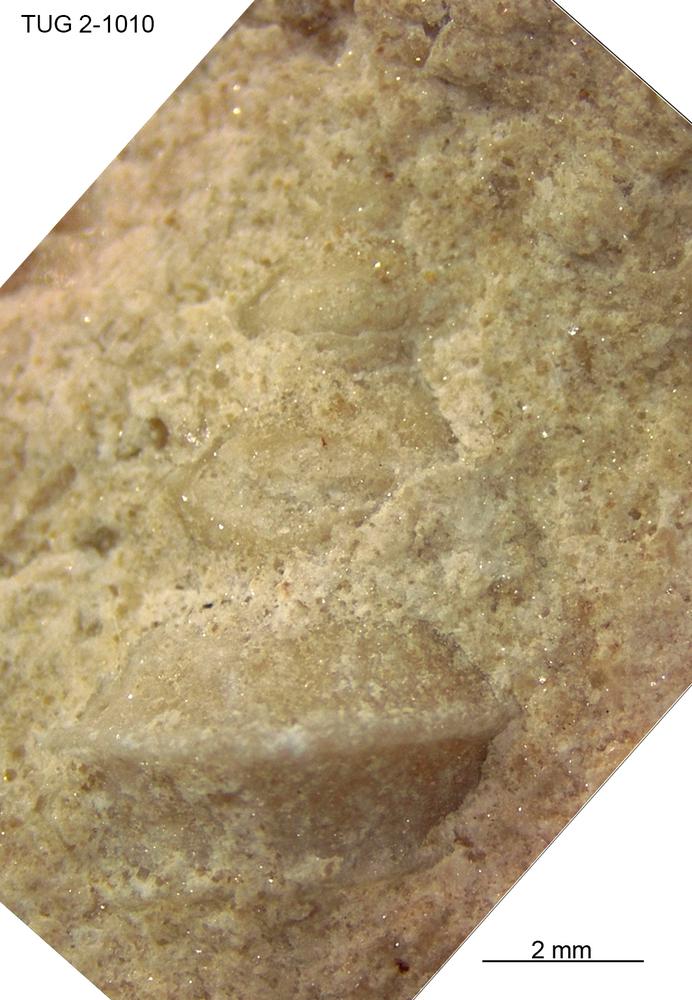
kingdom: Animalia
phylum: Mollusca
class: Gastropoda
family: Trochonematidae
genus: Trochonema
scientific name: Trochonema peraltum
